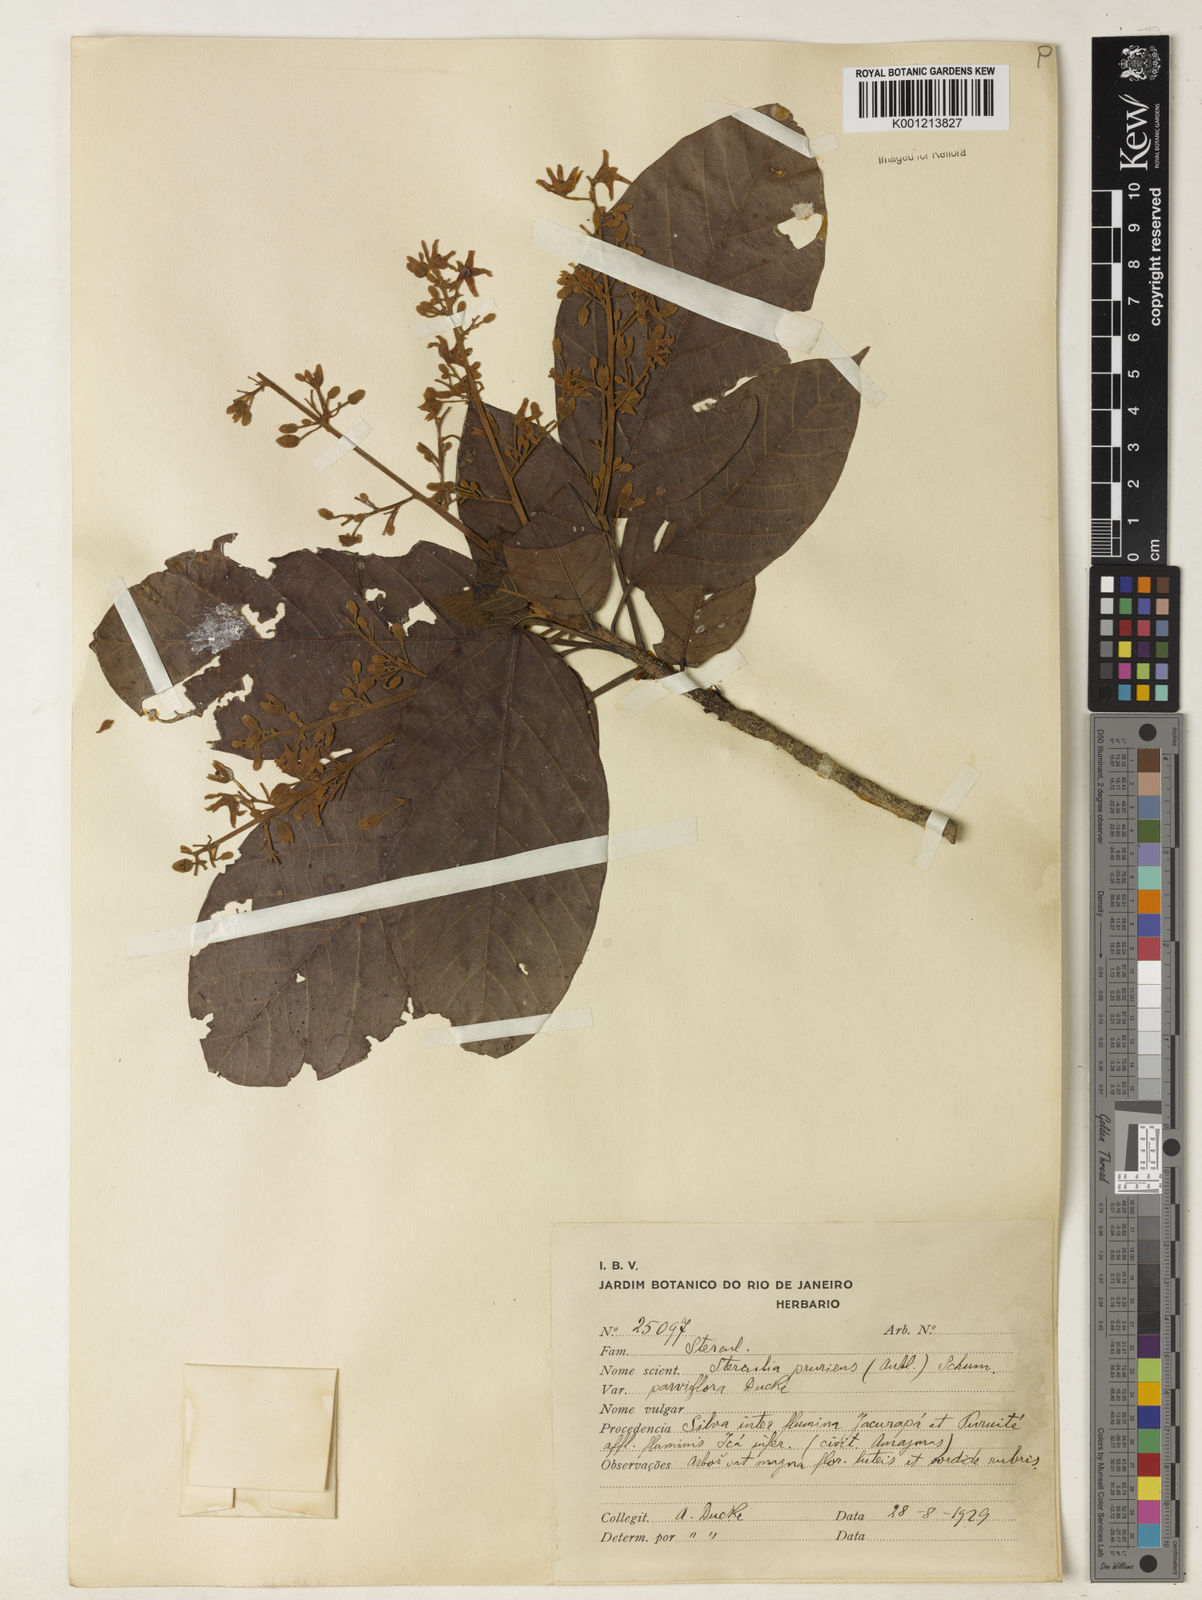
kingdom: Plantae
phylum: Tracheophyta
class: Magnoliopsida
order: Malvales
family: Malvaceae
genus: Sterculia
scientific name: Sterculia pruriens
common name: Grand mahot
